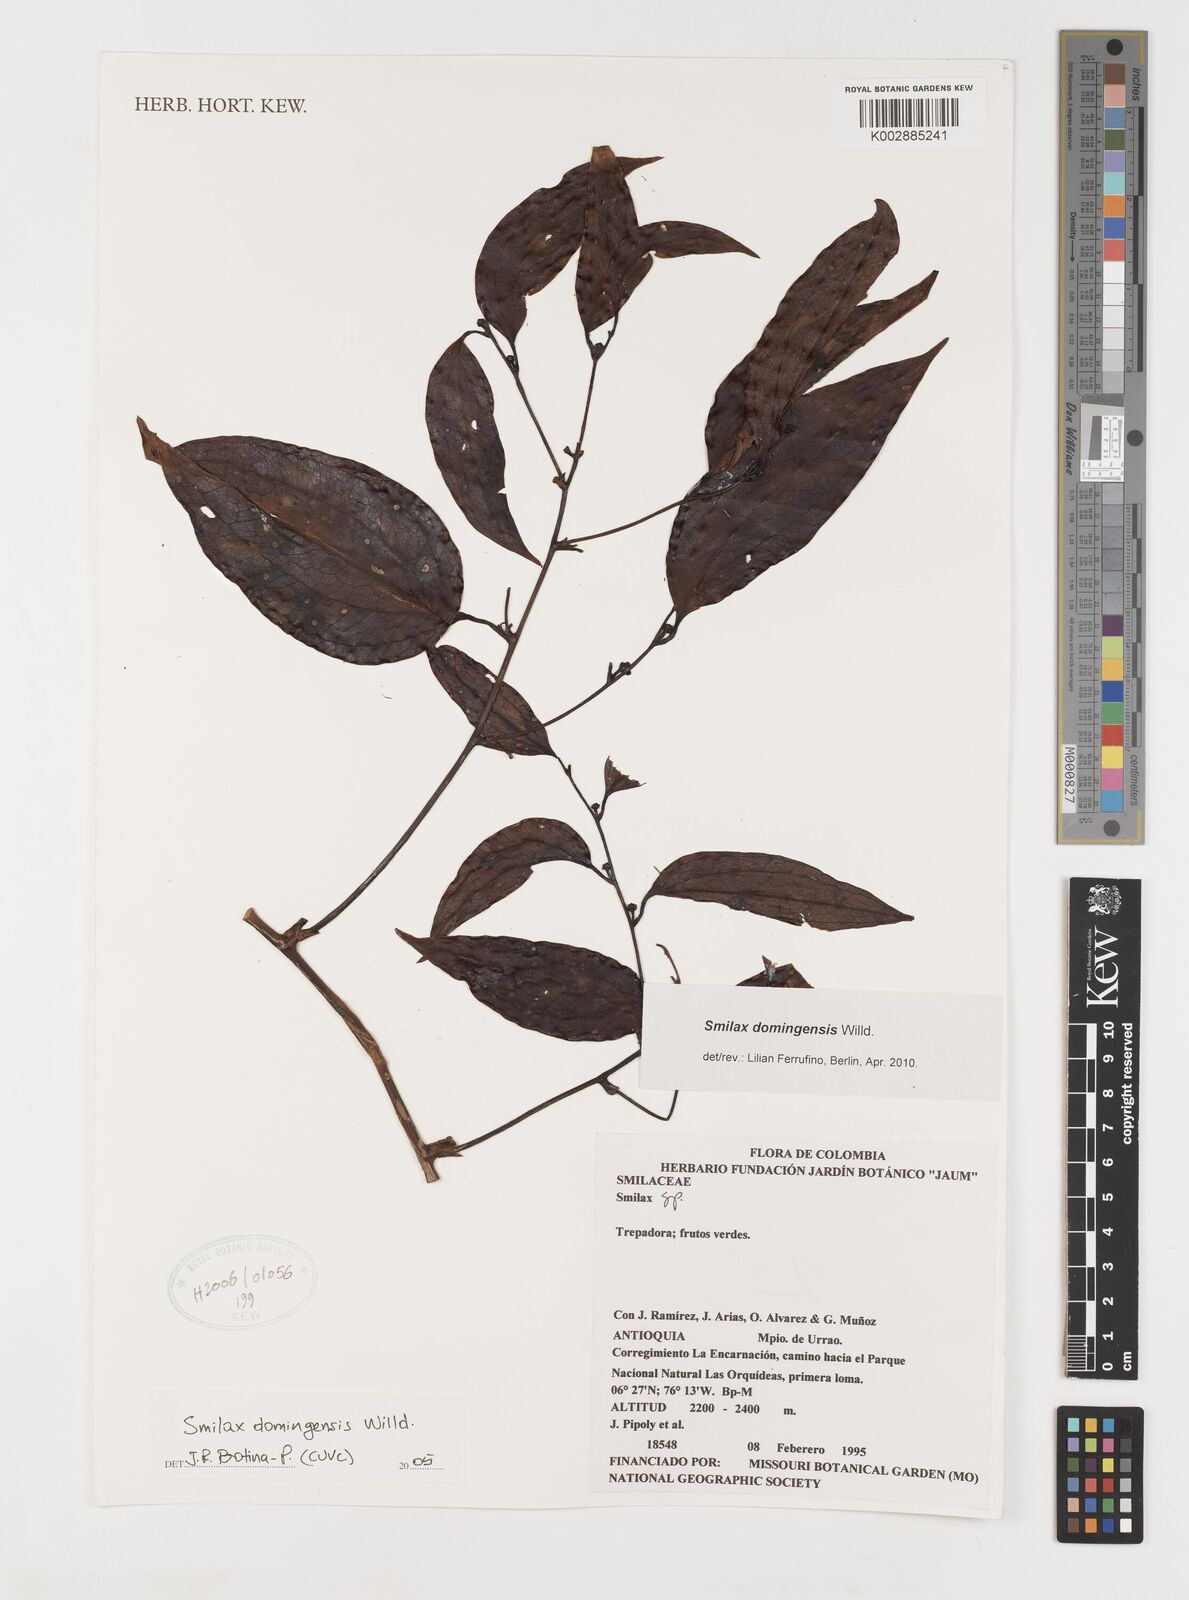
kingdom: Plantae
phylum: Tracheophyta
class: Liliopsida
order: Liliales
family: Smilacaceae
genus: Smilax
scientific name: Smilax domingensis
